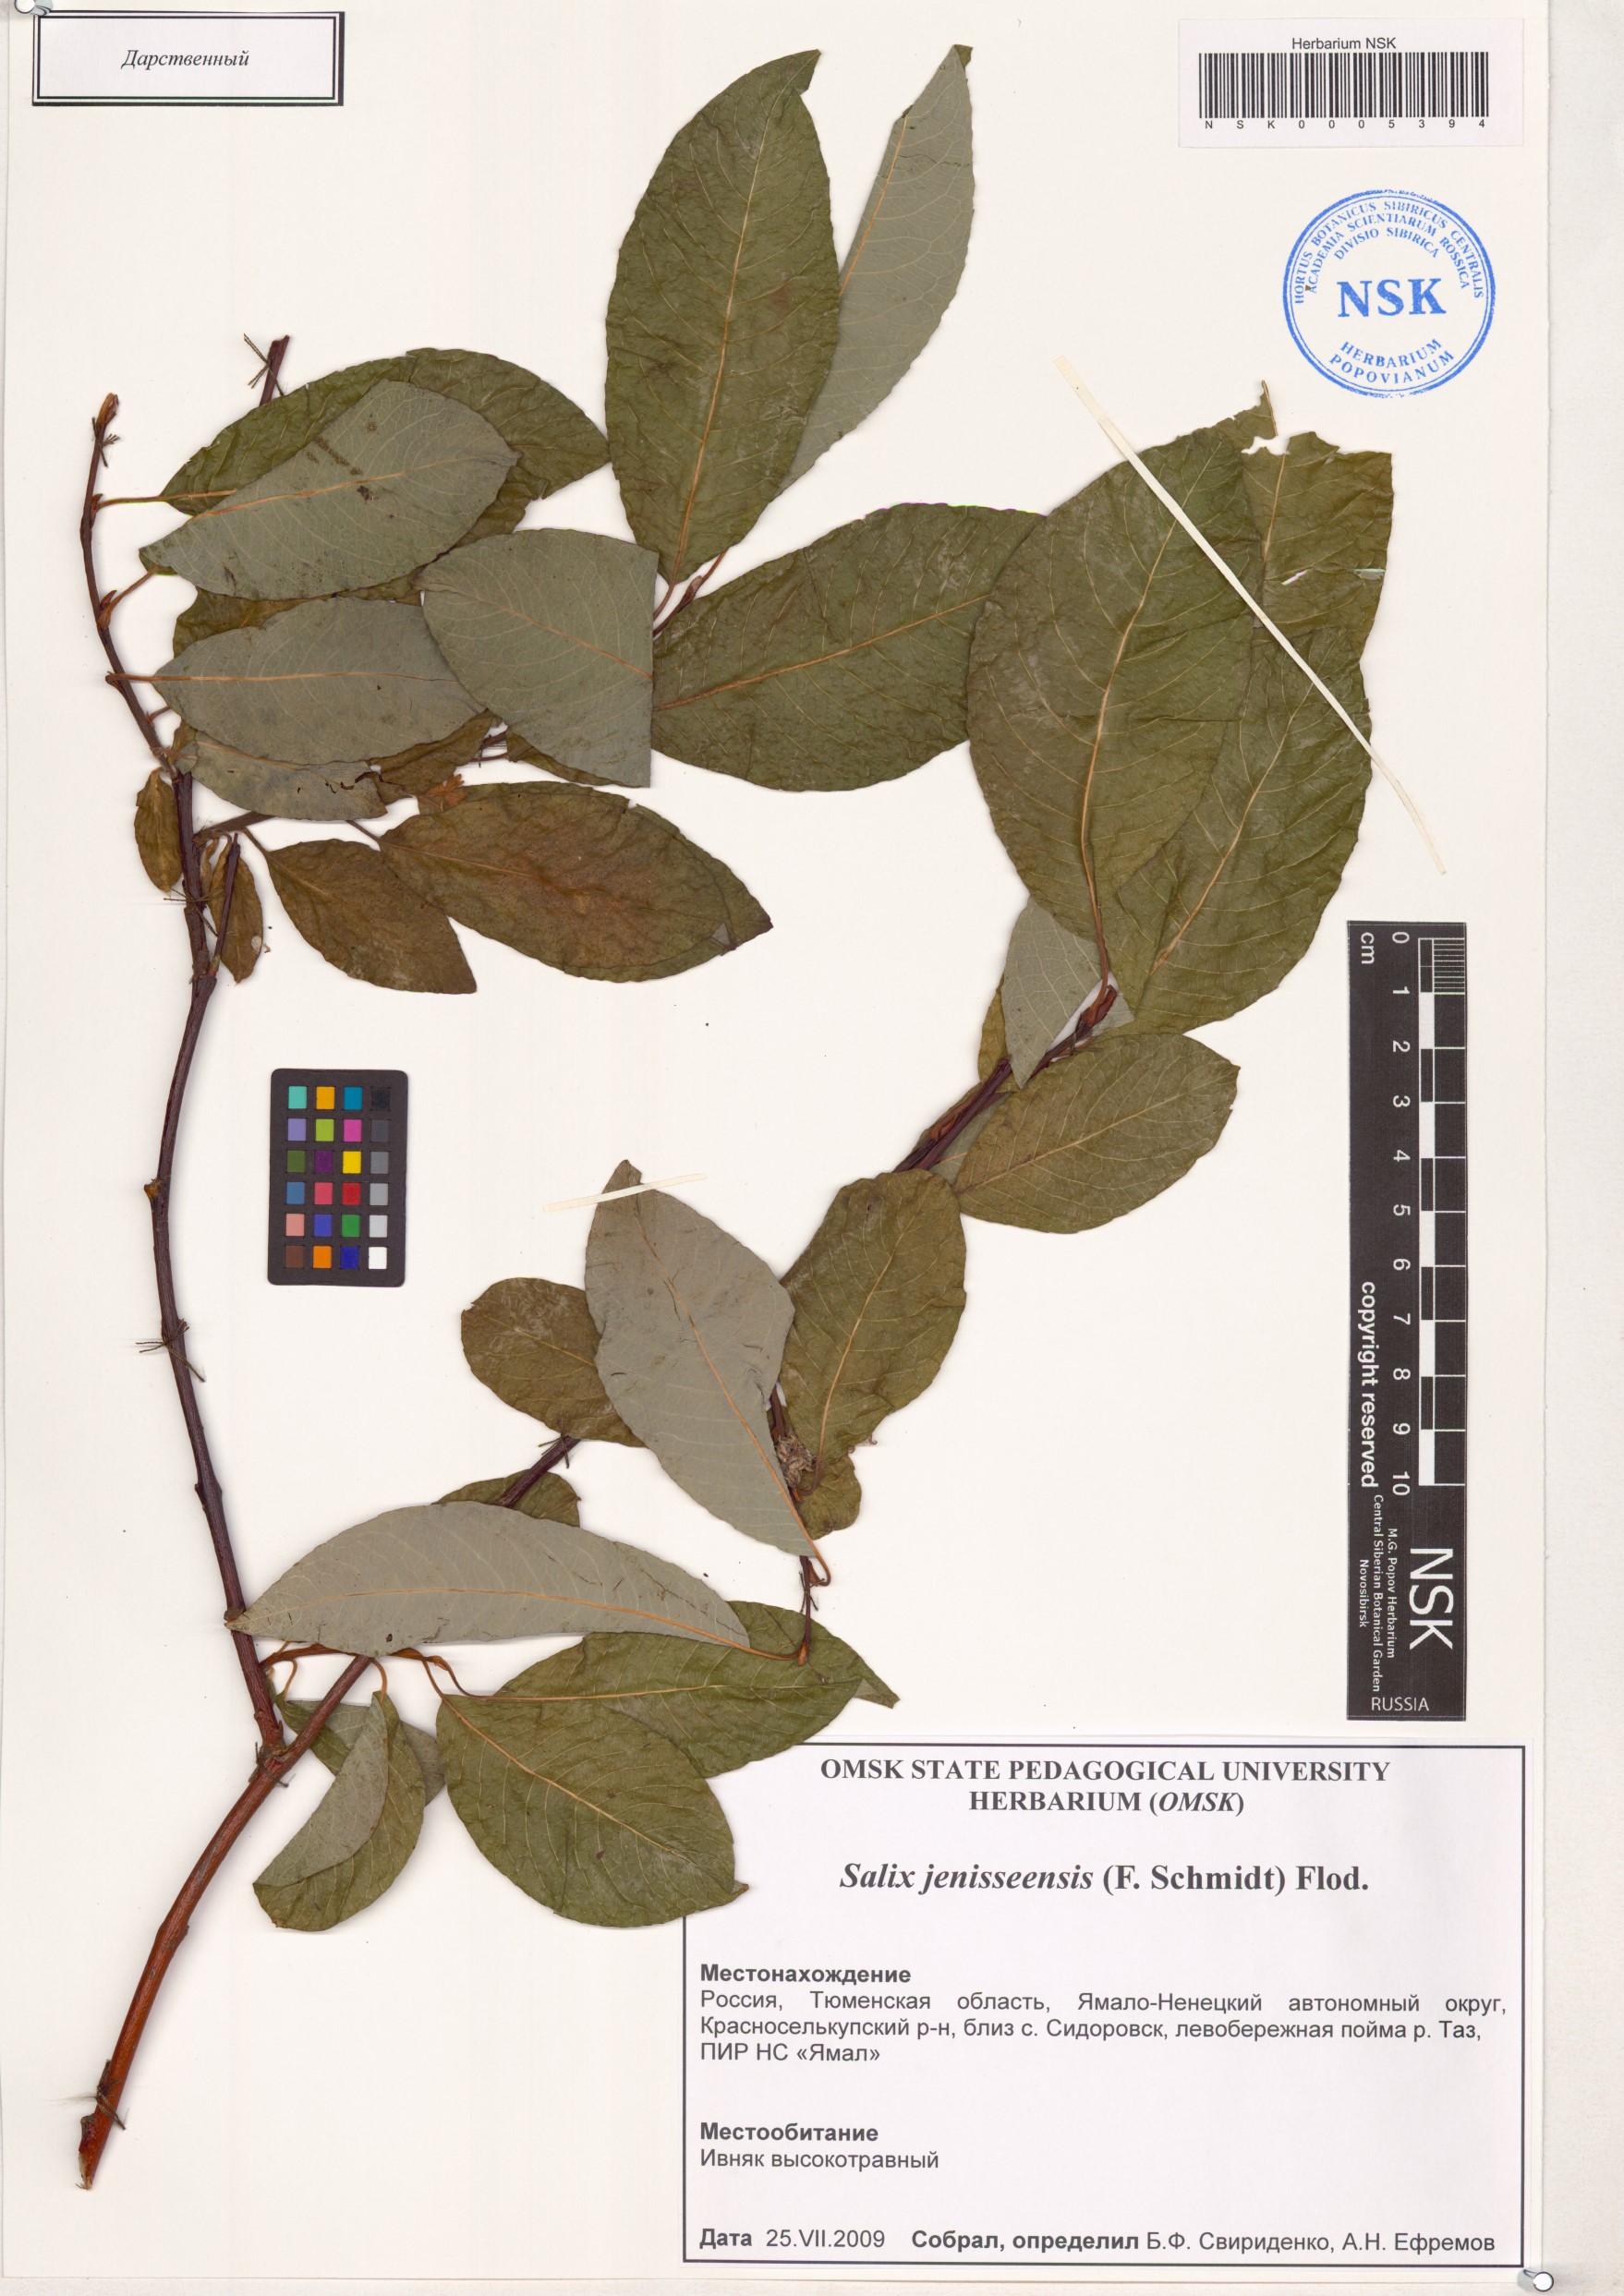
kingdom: Plantae
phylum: Tracheophyta
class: Magnoliopsida
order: Malpighiales
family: Salicaceae
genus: Salix
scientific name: Salix jenisseensis
